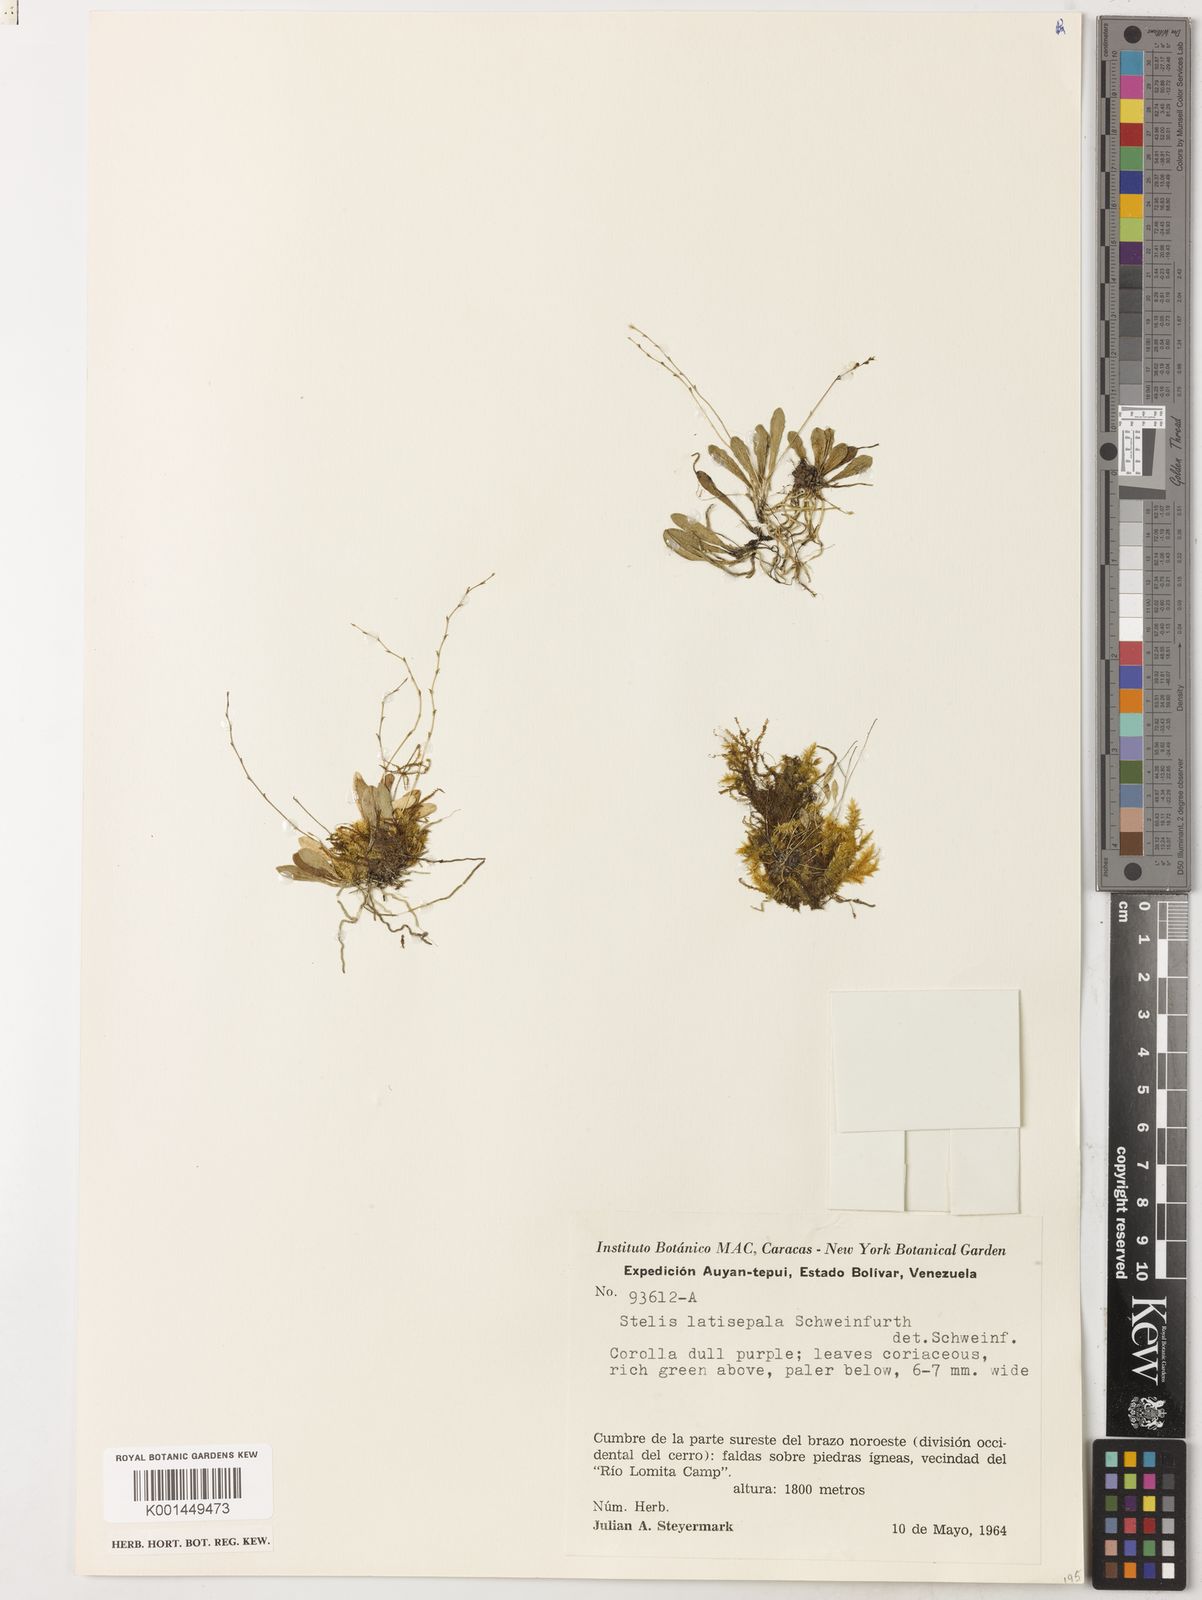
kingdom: Plantae
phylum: Tracheophyta
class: Liliopsida
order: Asparagales
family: Orchidaceae
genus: Stelis
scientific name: Stelis latisepala
